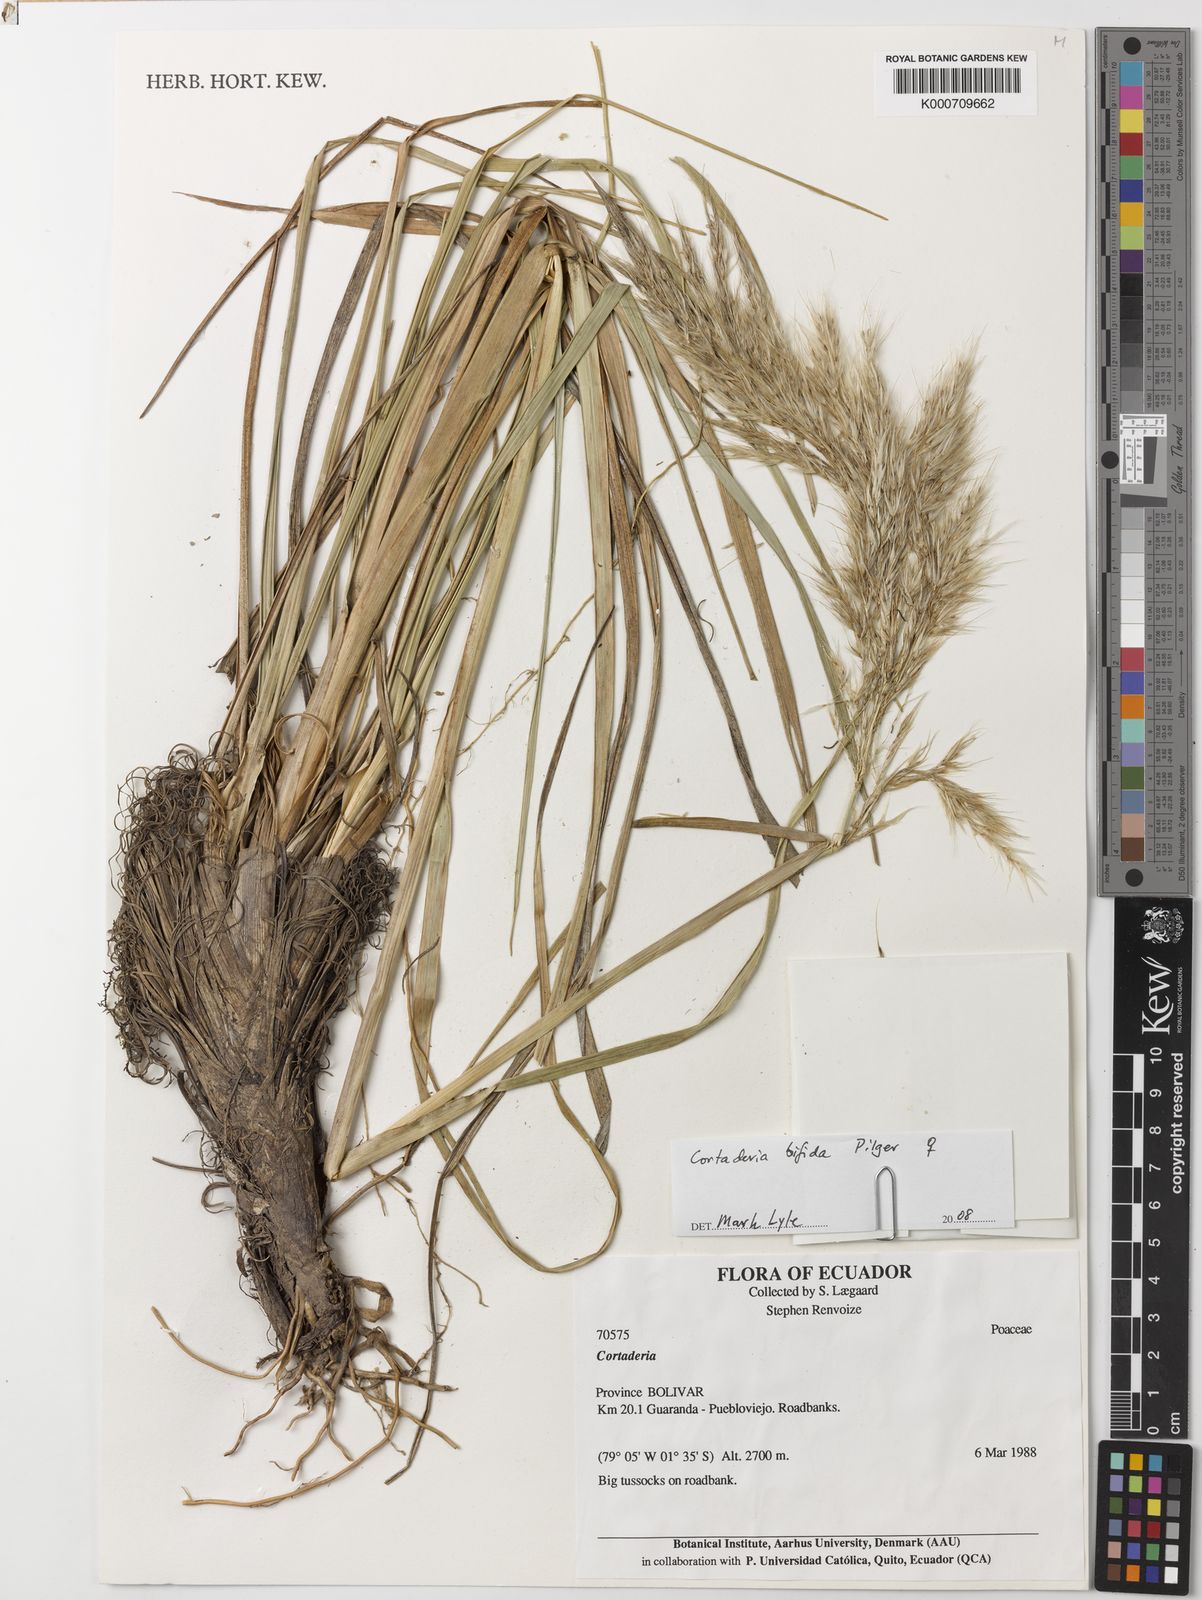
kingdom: Plantae
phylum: Tracheophyta
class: Liliopsida
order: Poales
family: Poaceae
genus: Cortaderia
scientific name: Cortaderia
